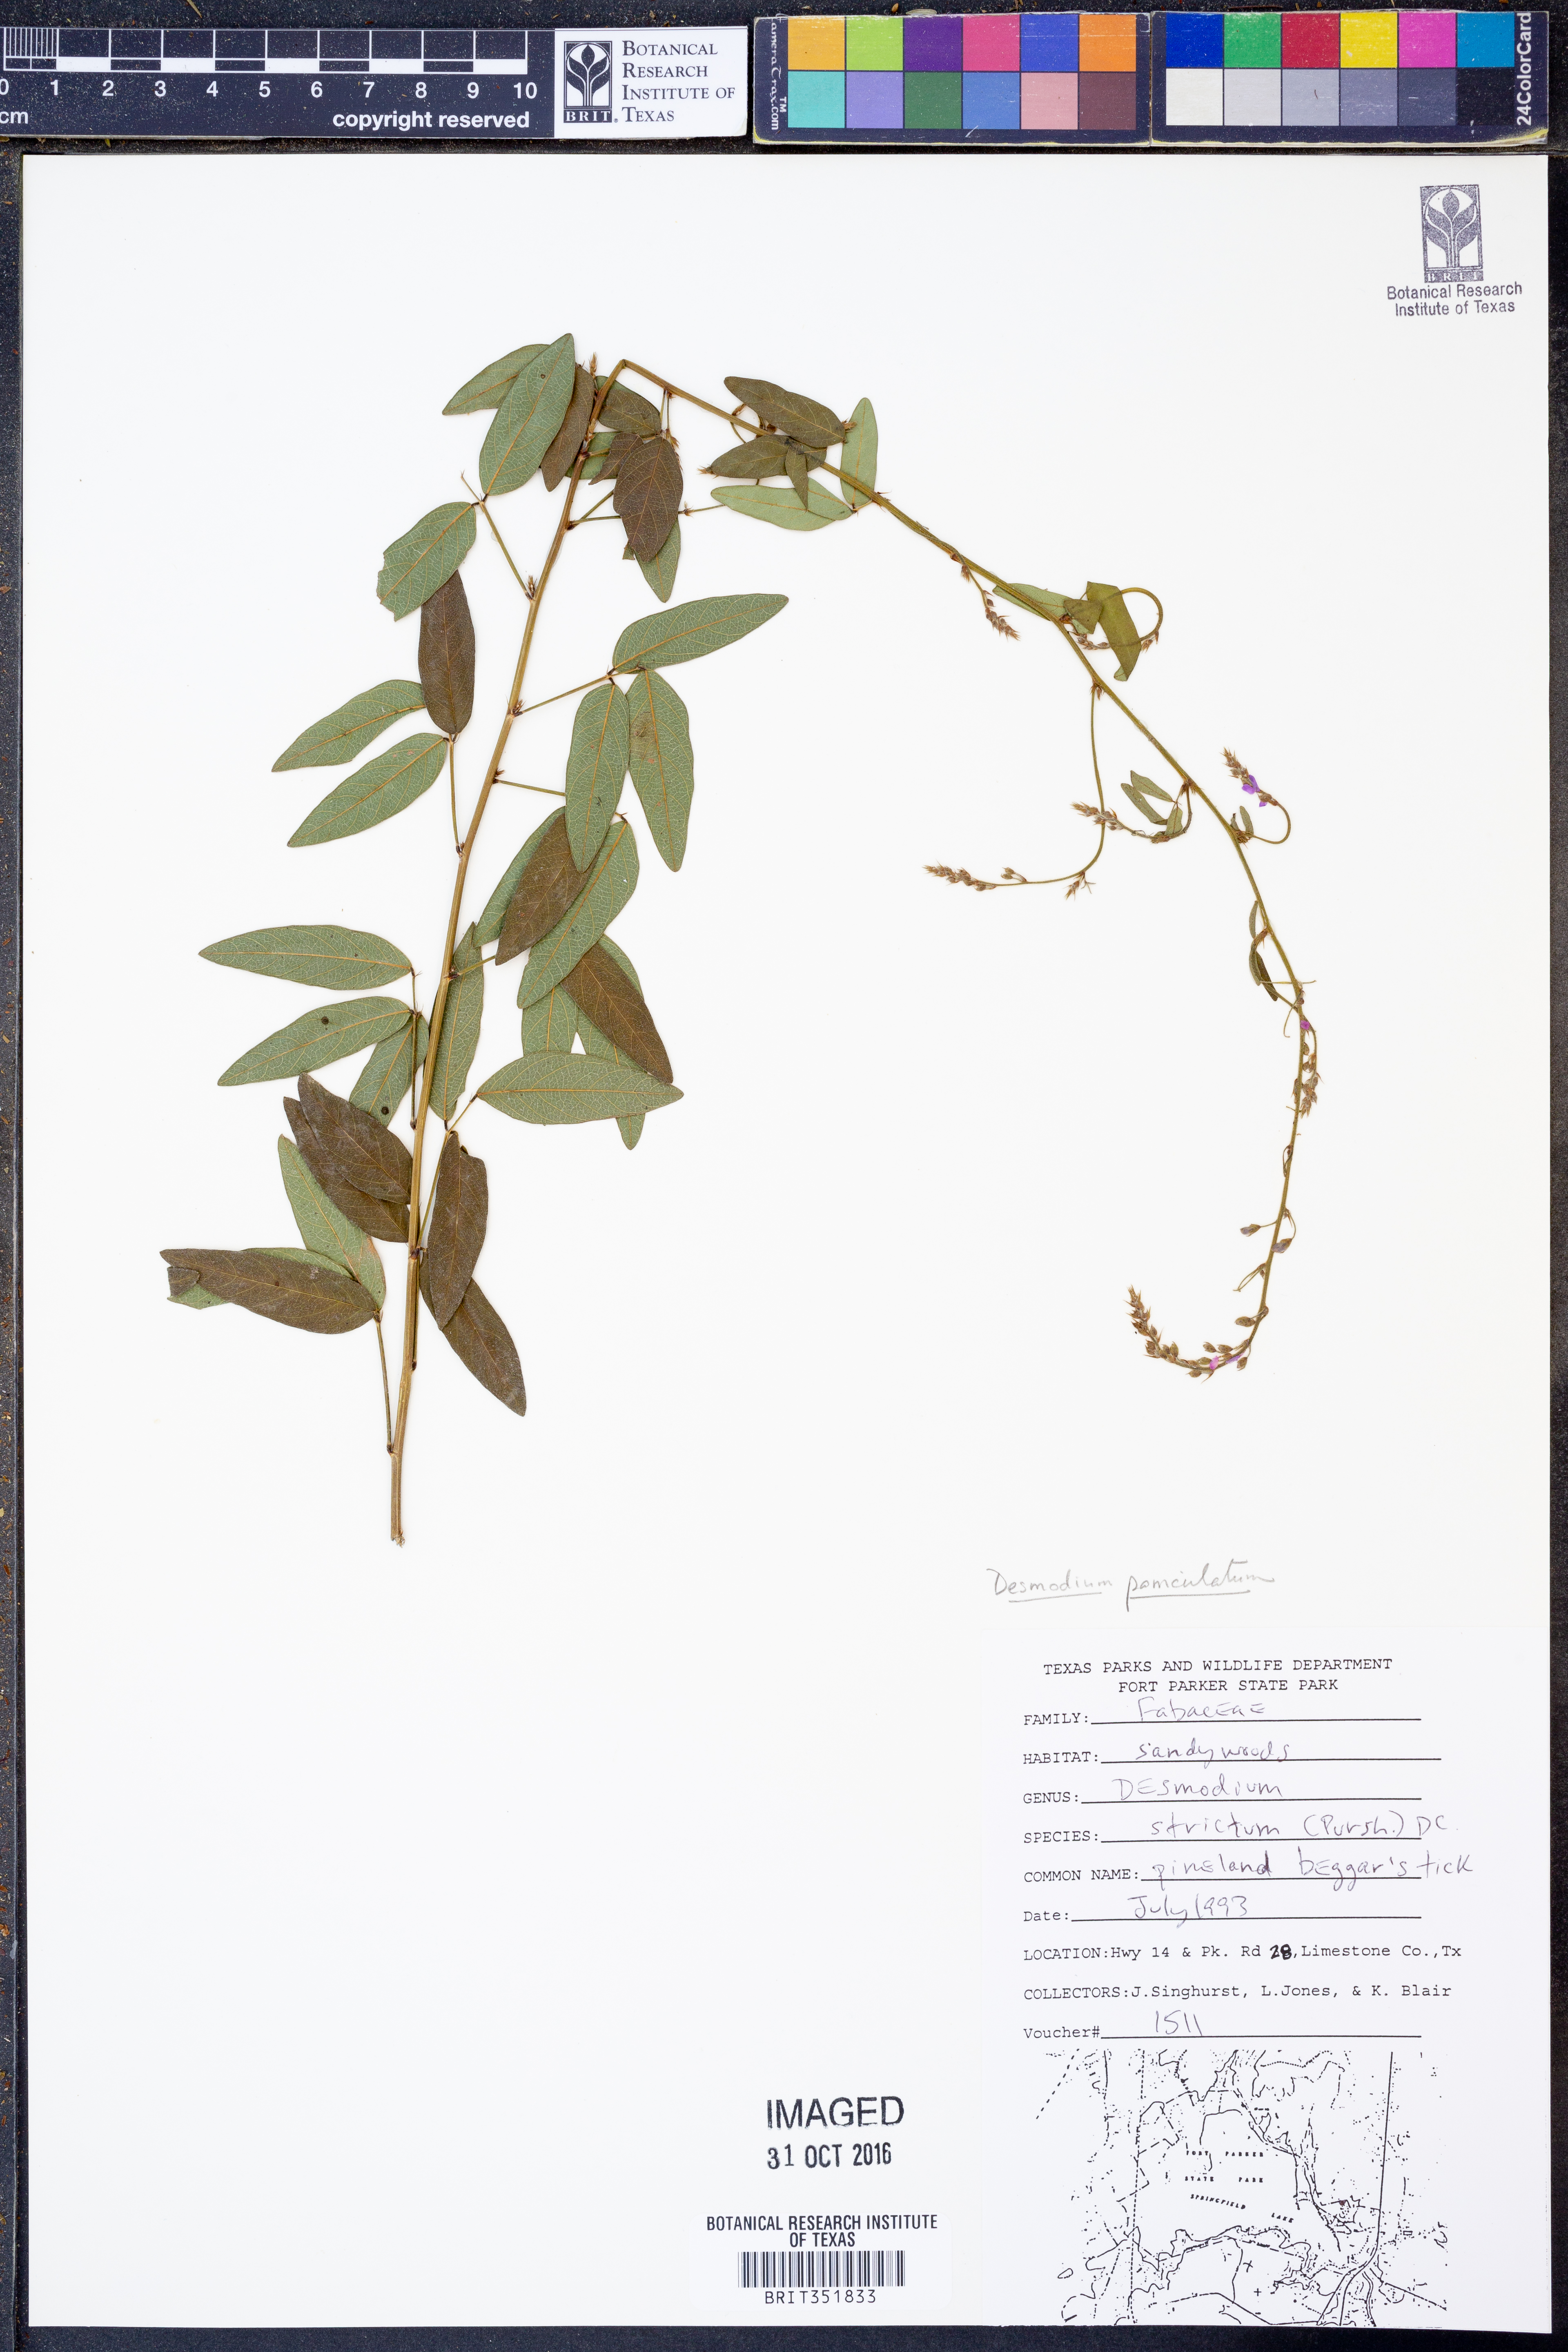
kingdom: Plantae
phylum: Tracheophyta
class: Magnoliopsida
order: Fabales
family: Fabaceae
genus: Desmodium
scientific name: Desmodium paniculatum
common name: Panicled tick-clover
